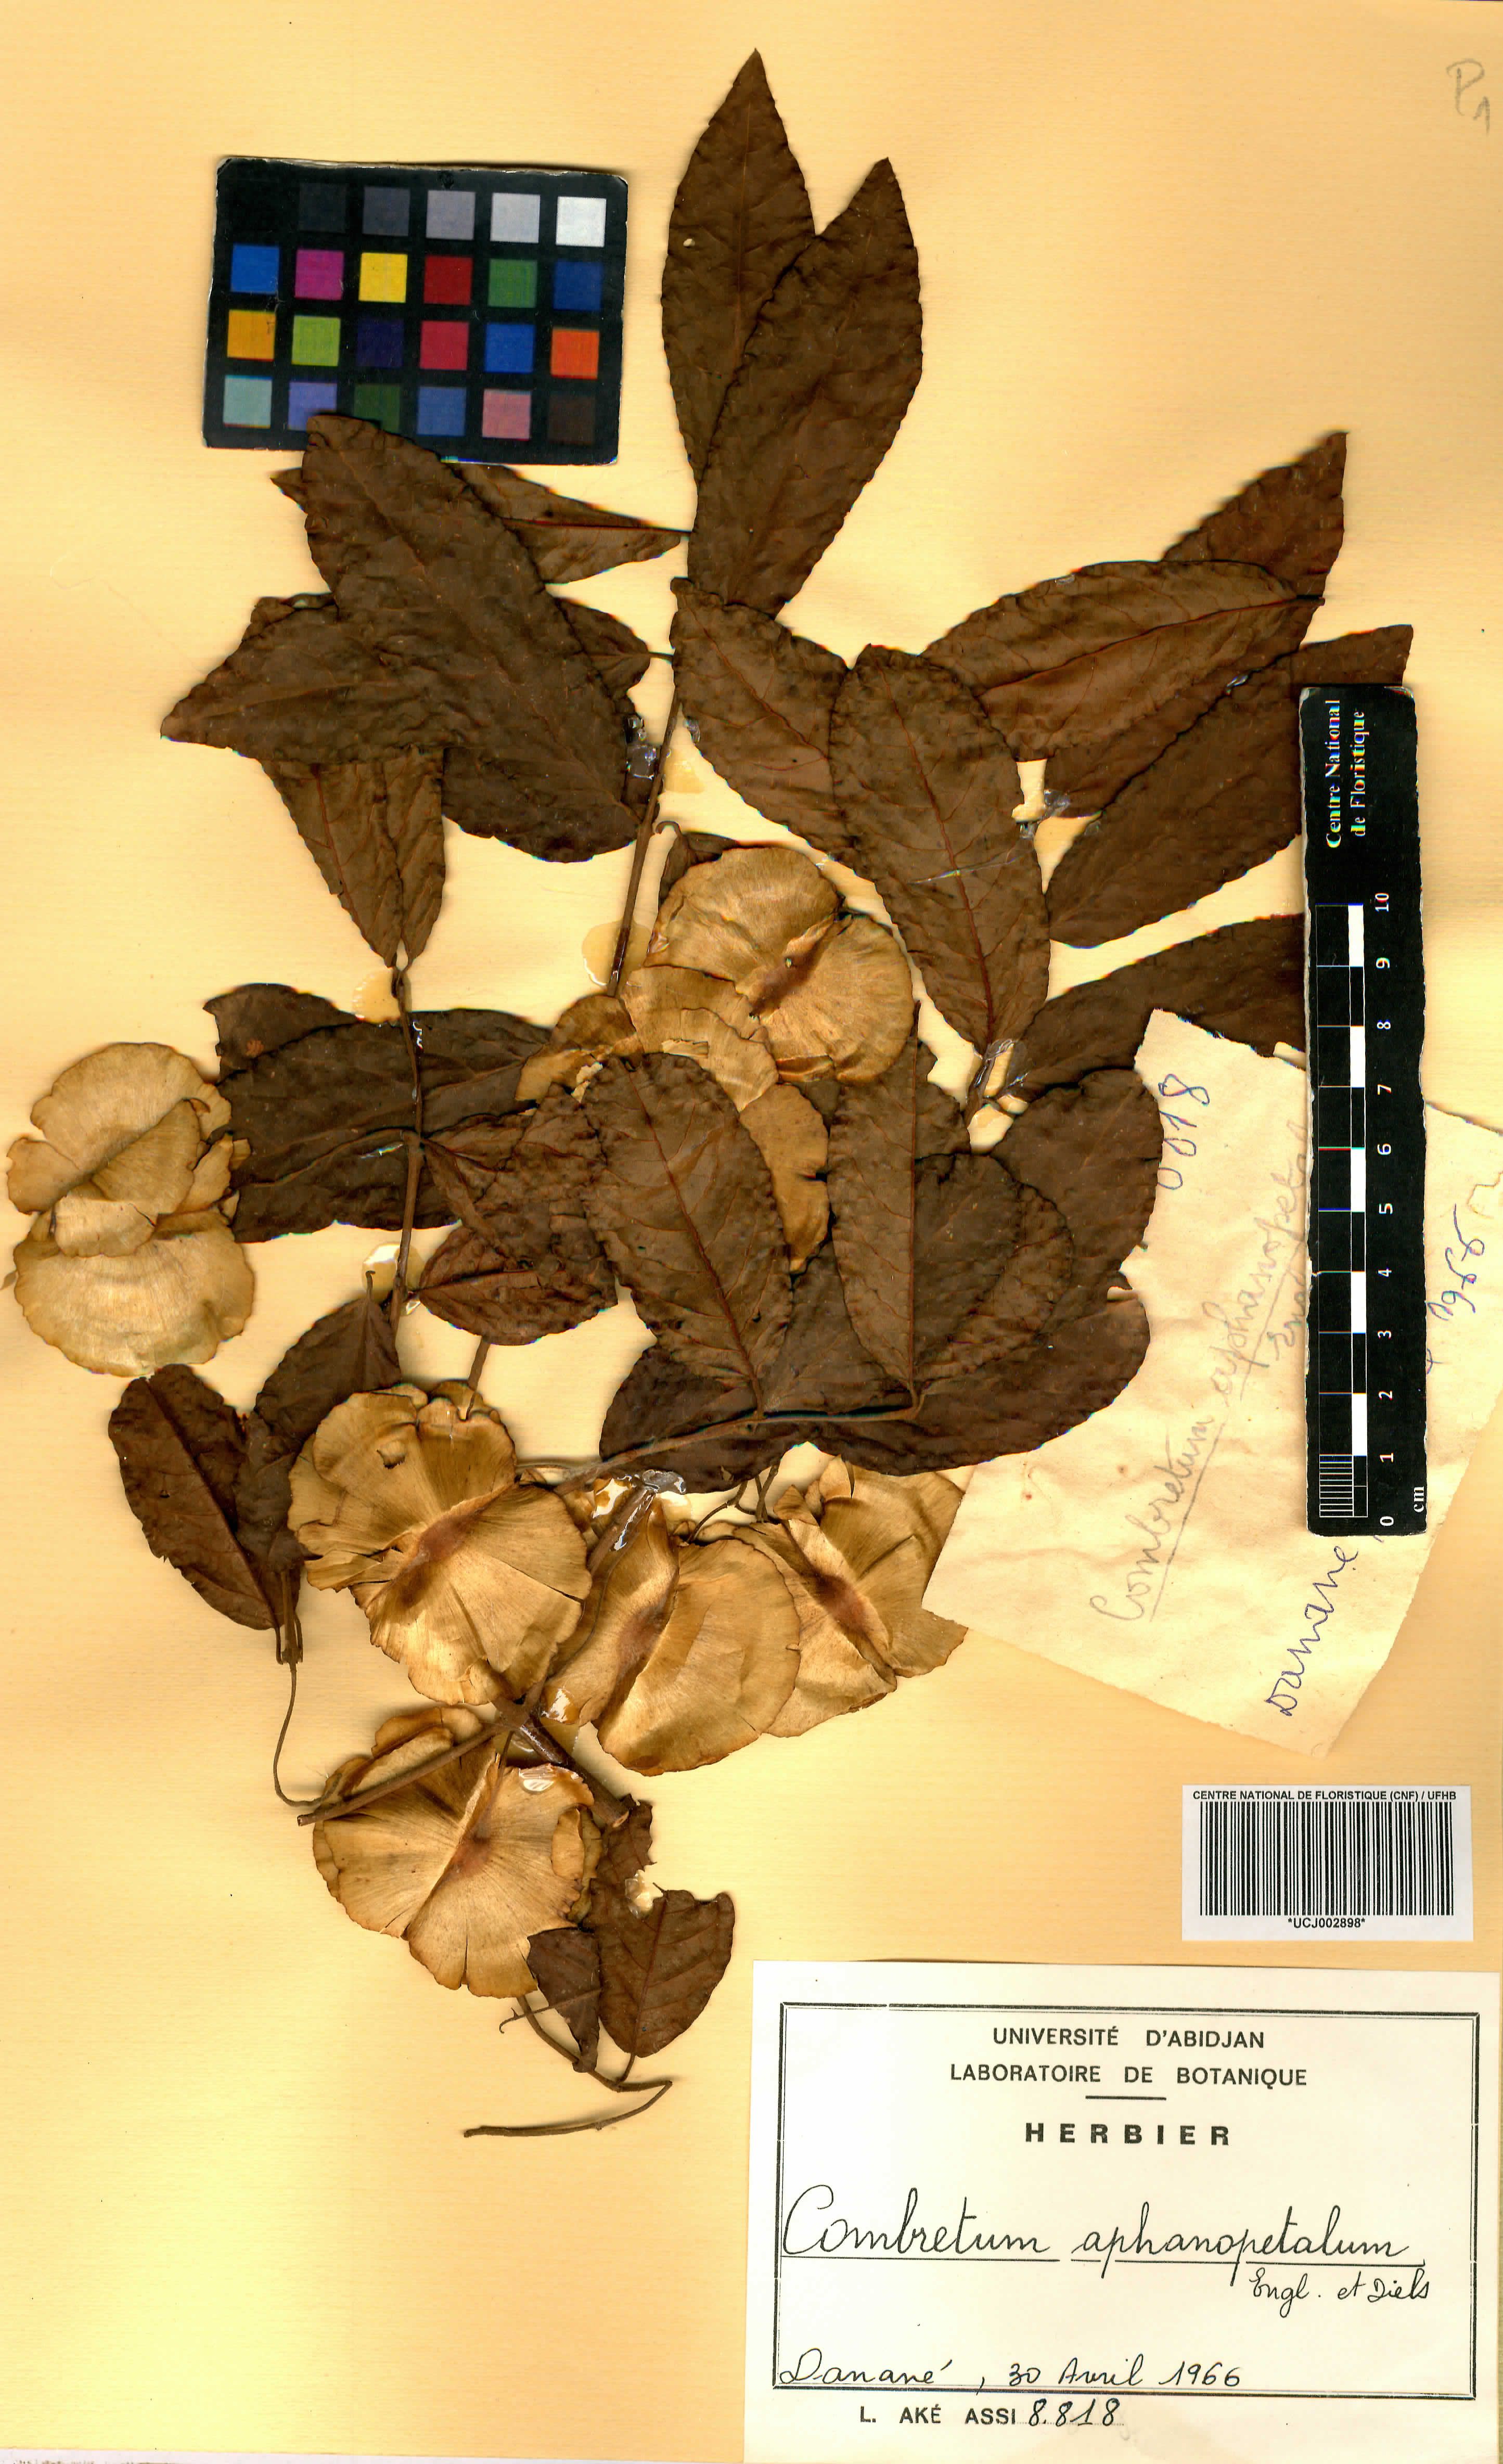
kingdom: Plantae
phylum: Tracheophyta
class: Magnoliopsida
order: Myrtales
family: Combretaceae
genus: Combretum
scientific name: Combretum adenogonium
